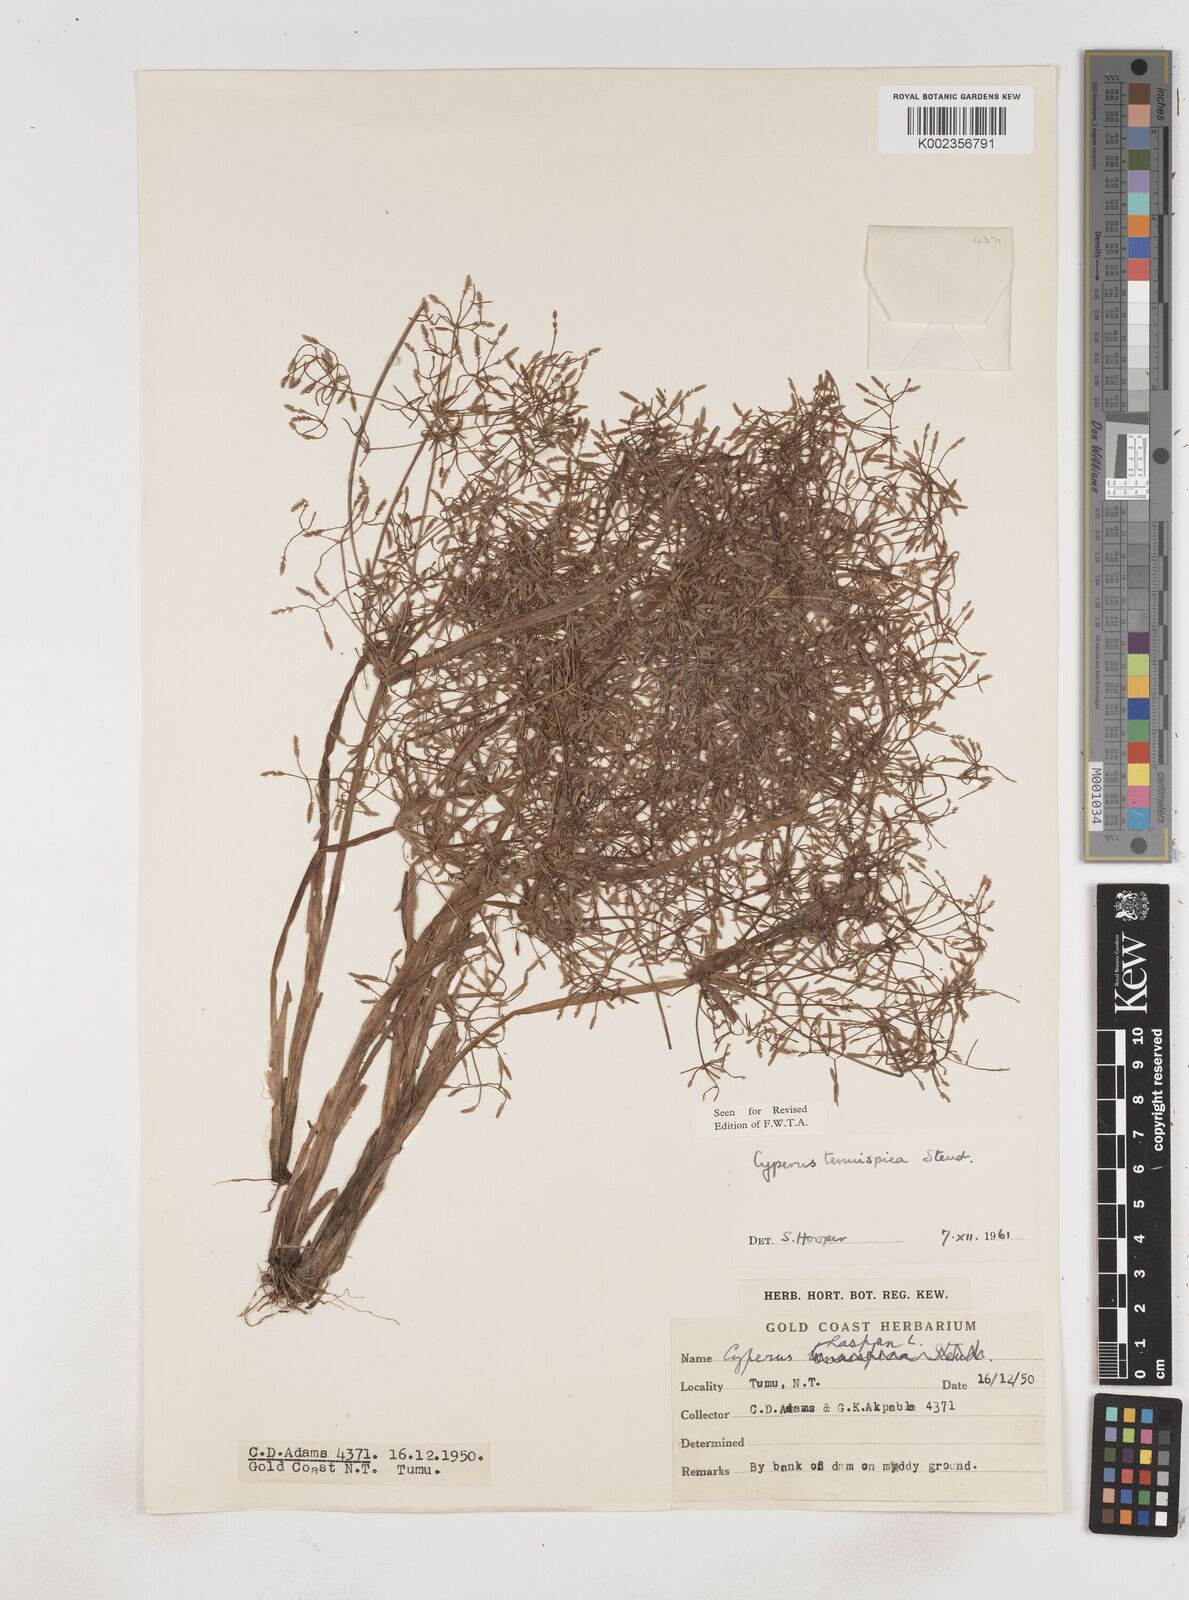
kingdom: Plantae
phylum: Tracheophyta
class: Liliopsida
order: Poales
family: Cyperaceae
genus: Cyperus
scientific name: Cyperus tenuispica
